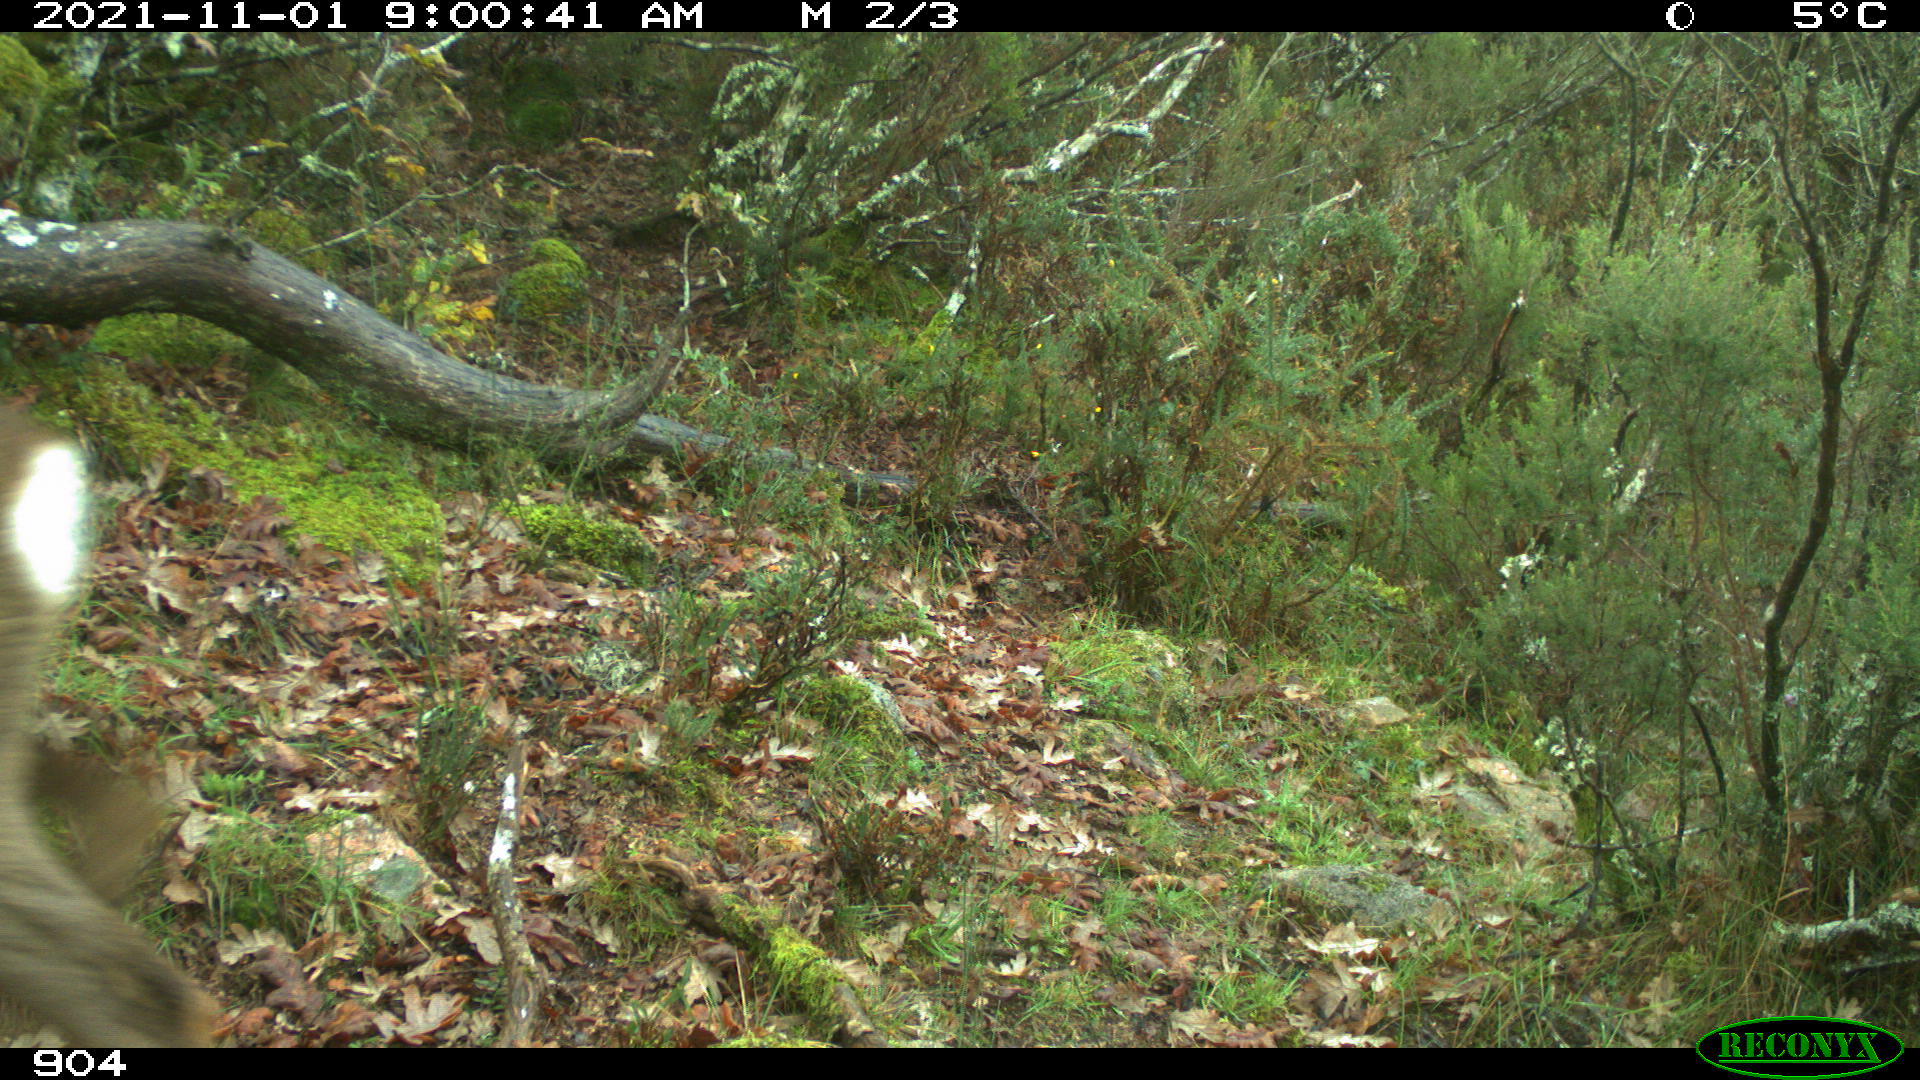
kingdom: Animalia
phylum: Chordata
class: Mammalia
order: Artiodactyla
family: Cervidae
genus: Capreolus
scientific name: Capreolus capreolus
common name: Western roe deer
